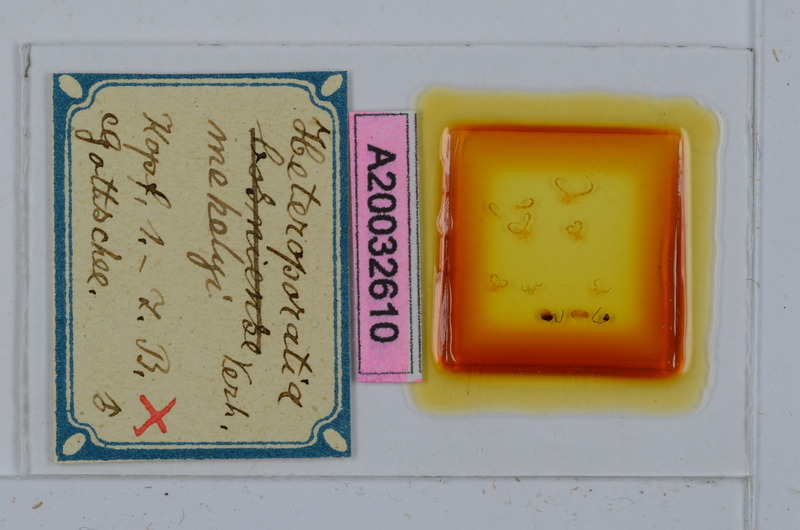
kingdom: Animalia
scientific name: Animalia
